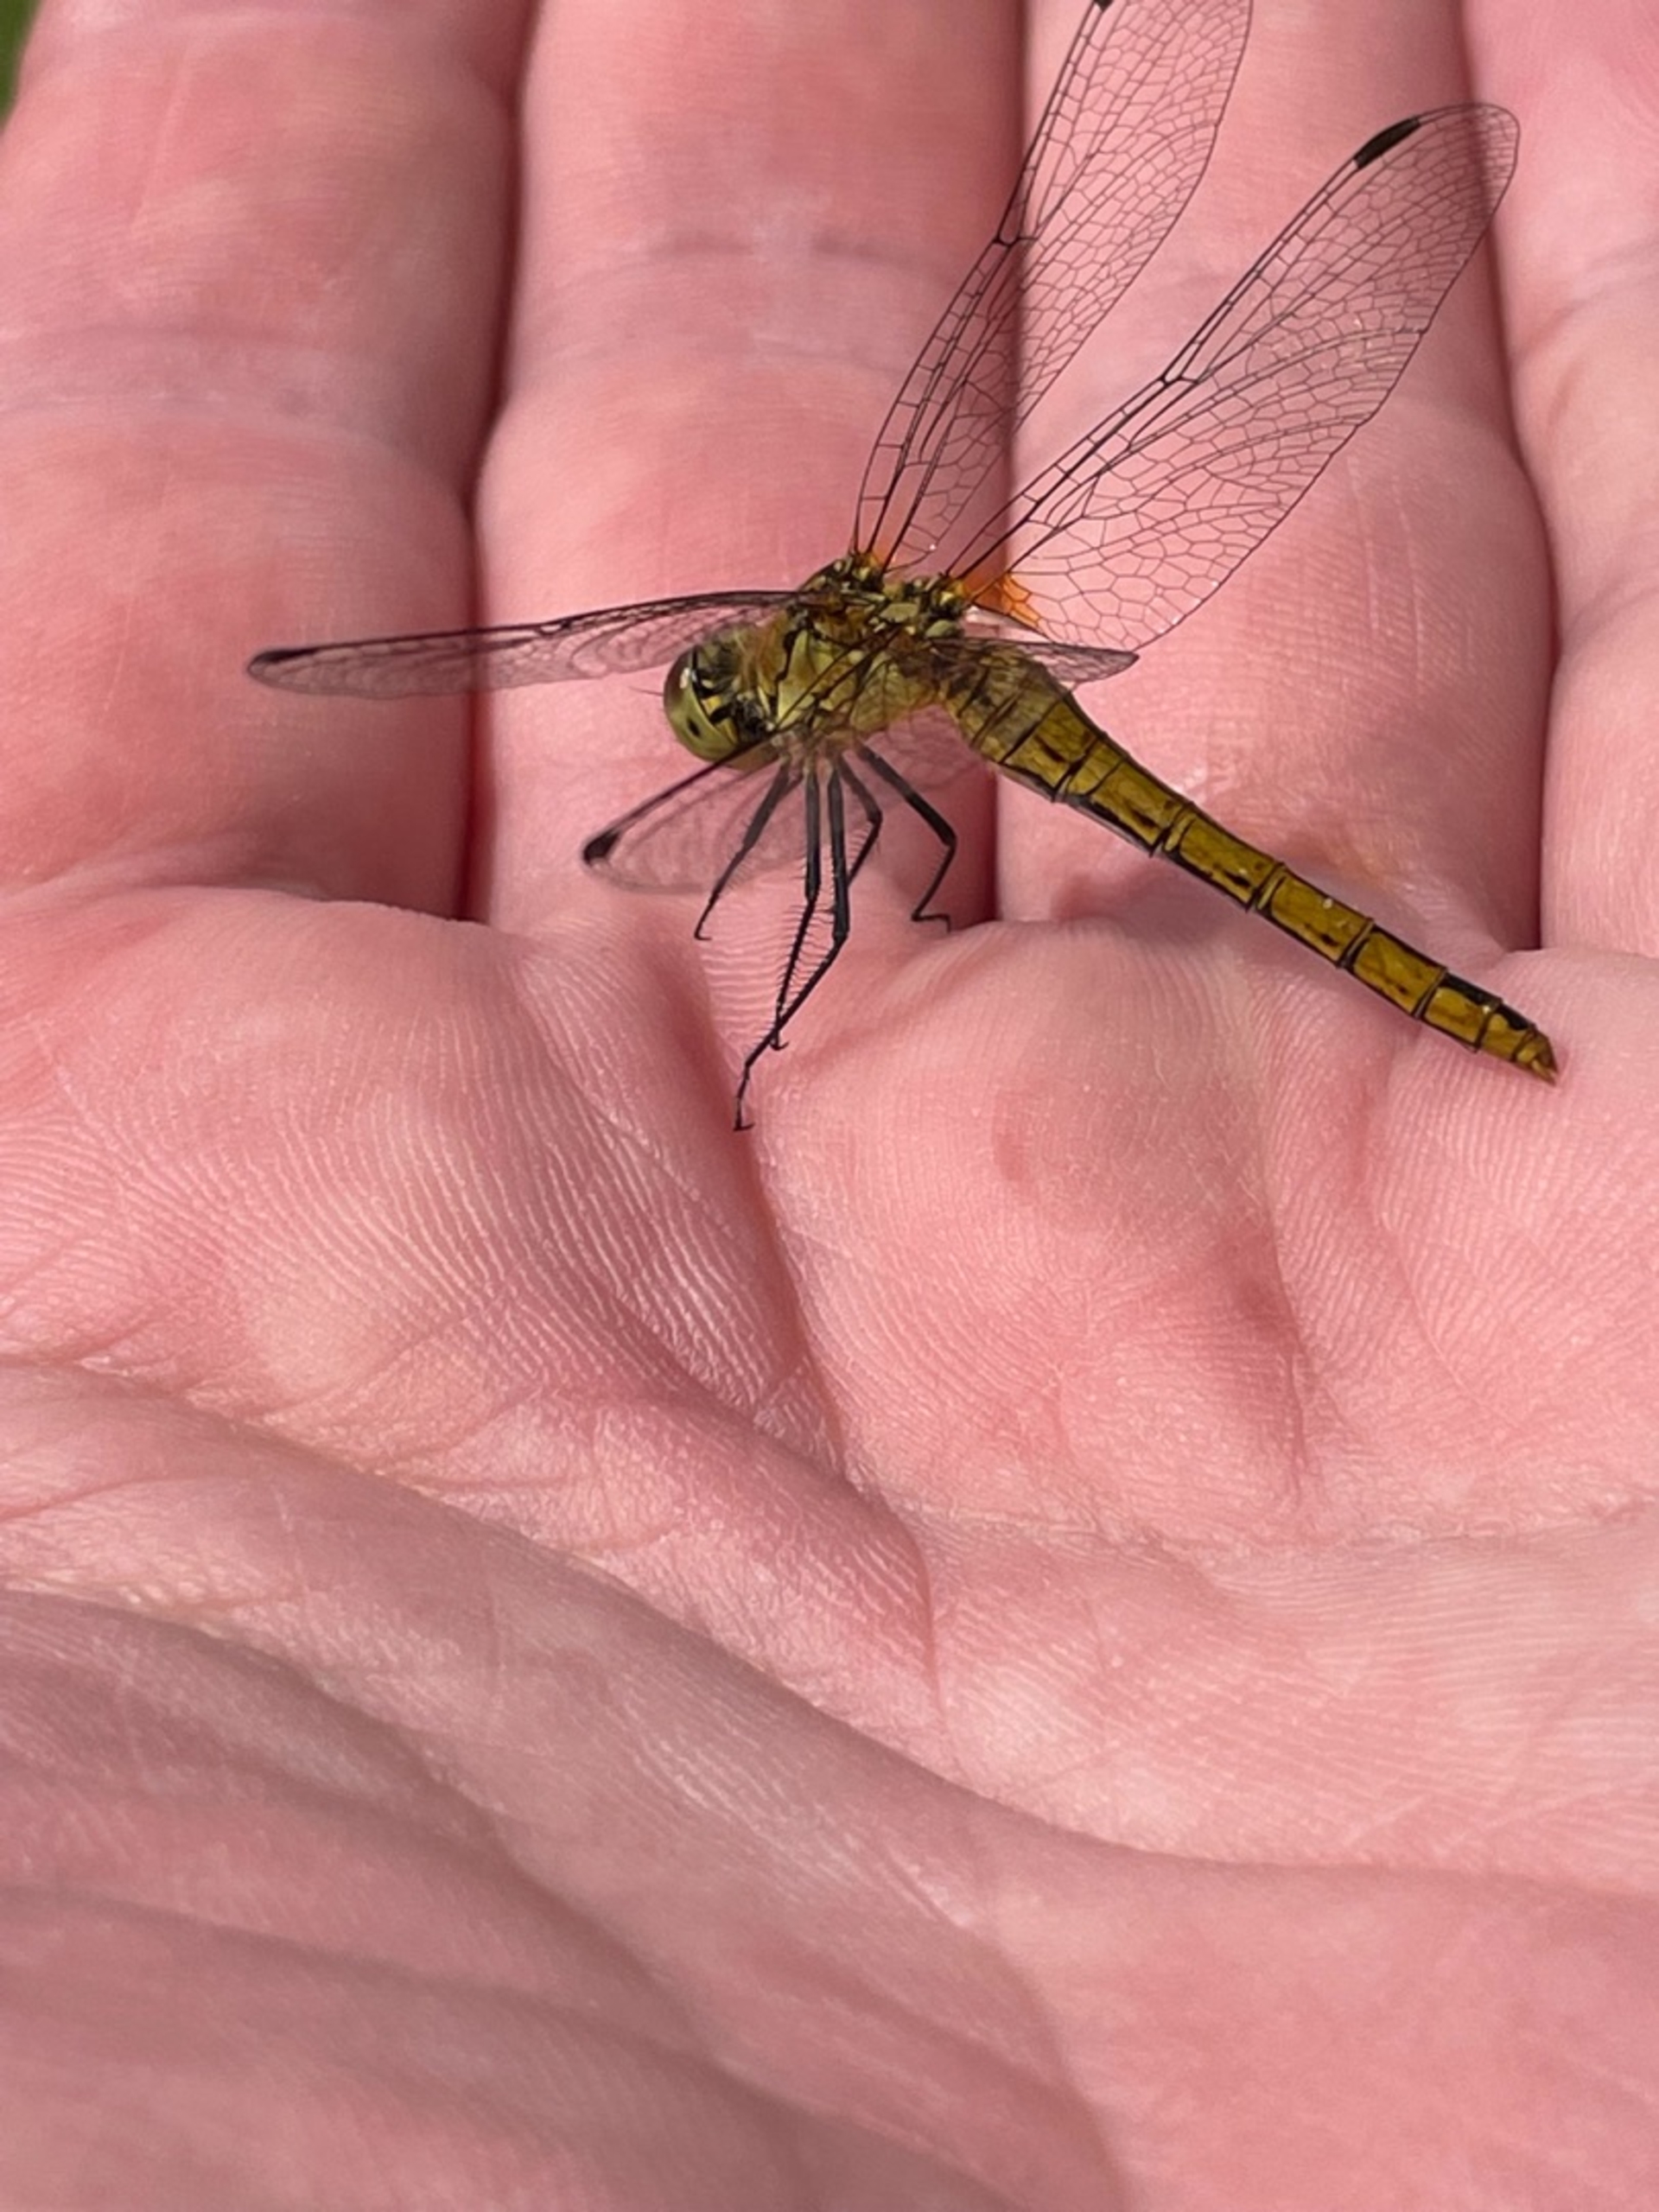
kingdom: Animalia
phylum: Arthropoda
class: Insecta
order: Odonata
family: Libellulidae
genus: Sympetrum
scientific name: Sympetrum sanguineum
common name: Blodrød hedelibel
